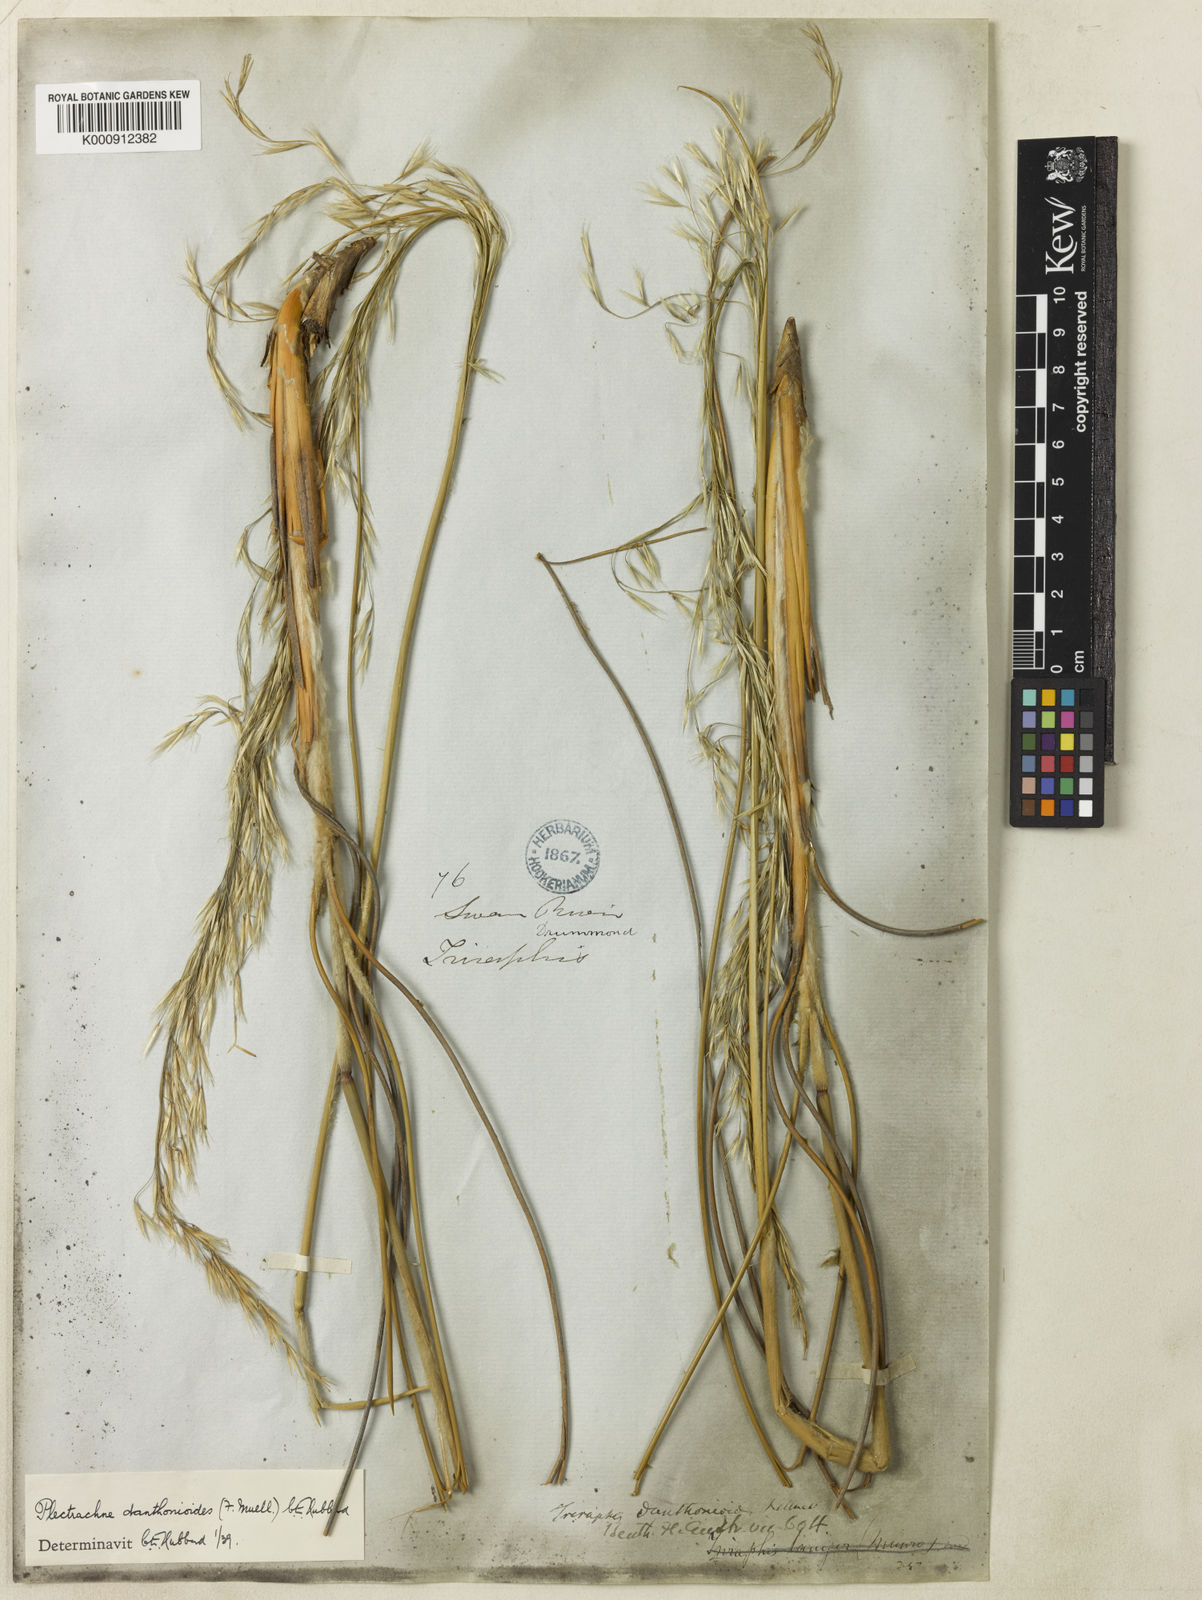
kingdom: Plantae
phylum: Tracheophyta
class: Liliopsida
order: Poales
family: Poaceae
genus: Triodia
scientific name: Triodia danthonioides
